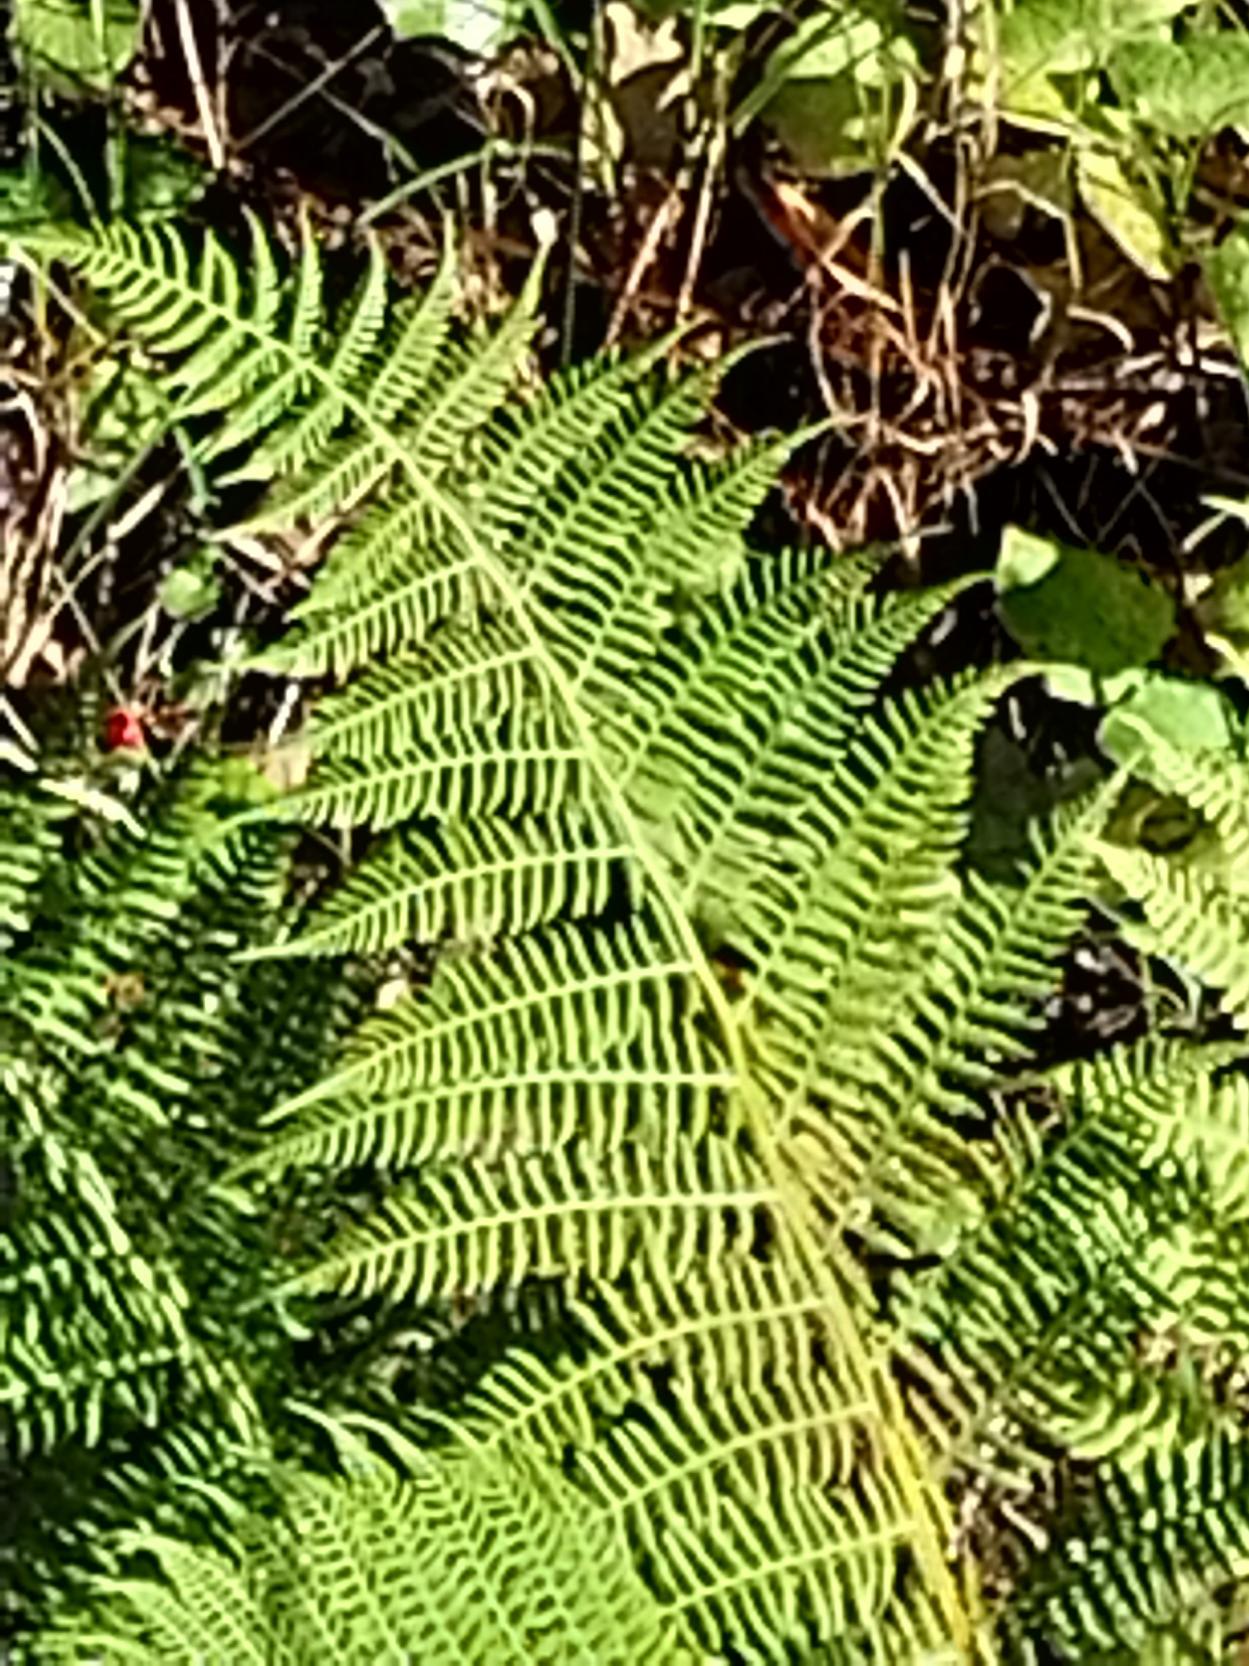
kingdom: Plantae
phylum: Tracheophyta
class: Polypodiopsida
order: Polypodiales
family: Athyriaceae
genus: Athyrium
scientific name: Athyrium filix-femina
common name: Fjerbregne
